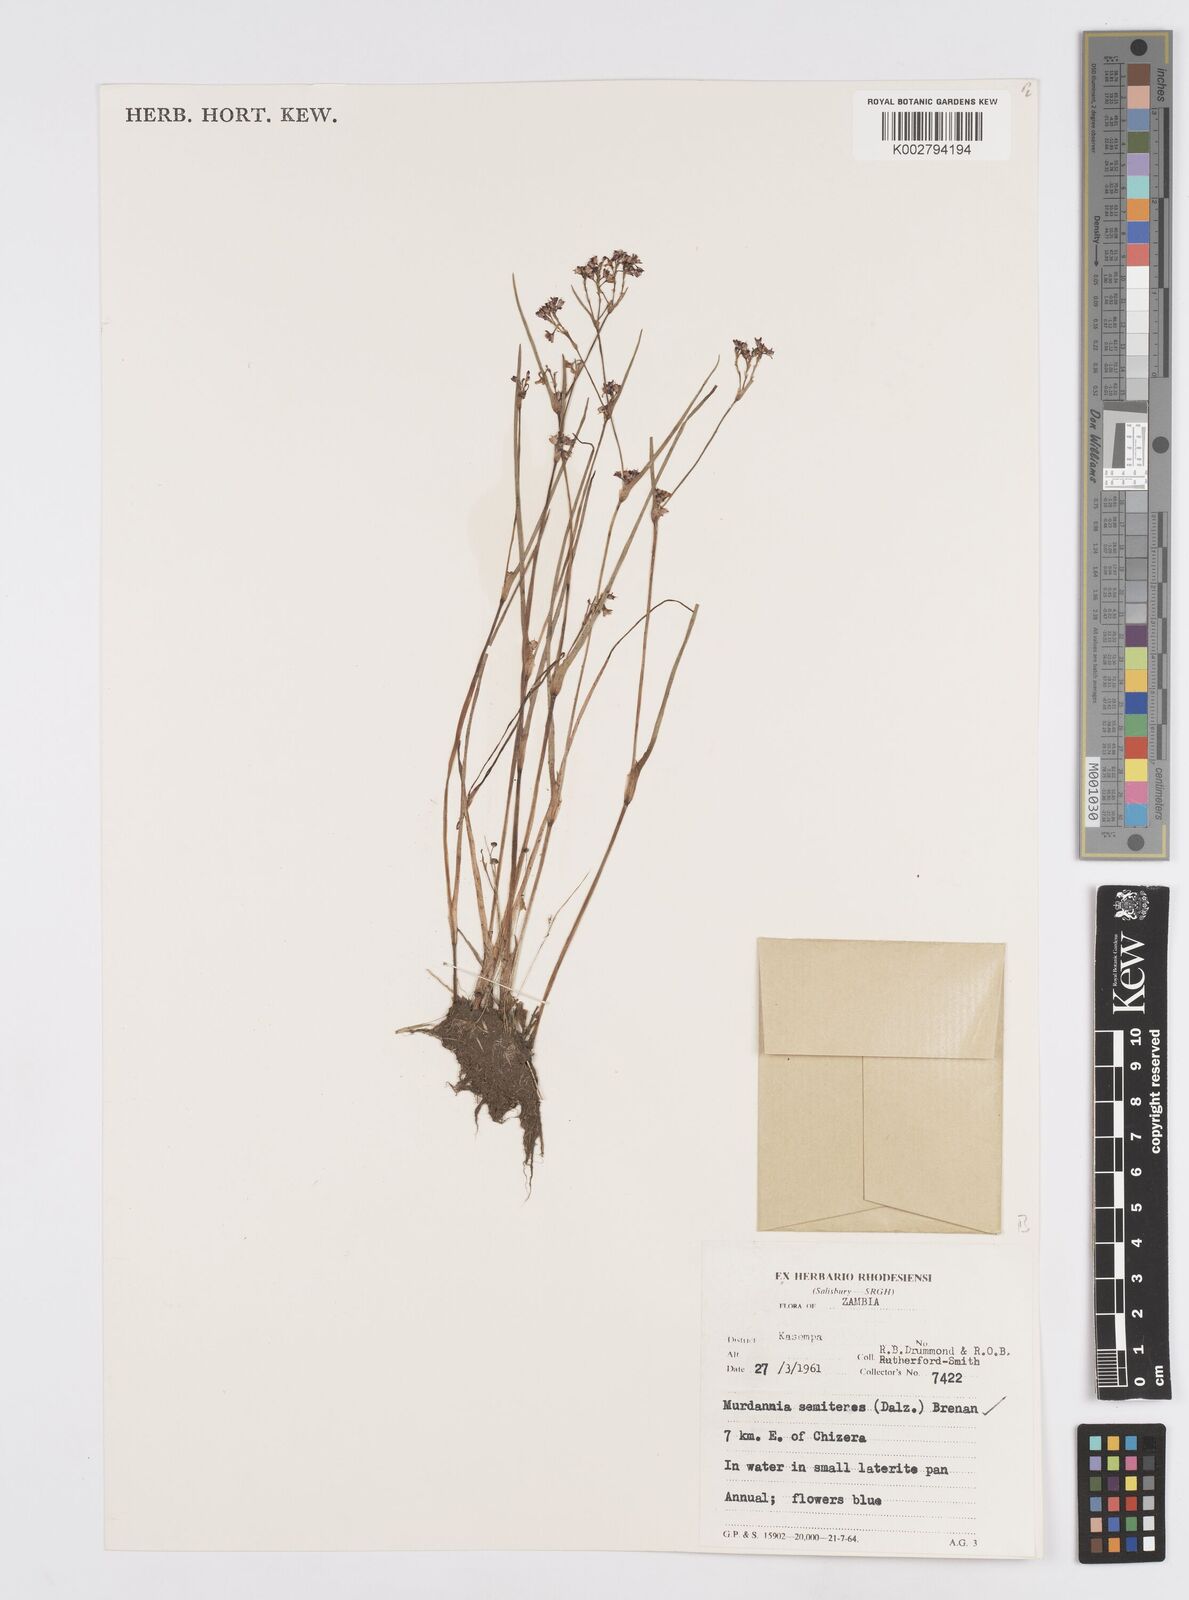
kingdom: Plantae
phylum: Tracheophyta
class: Liliopsida
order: Commelinales
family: Commelinaceae
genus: Murdannia
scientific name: Murdannia semiteres
